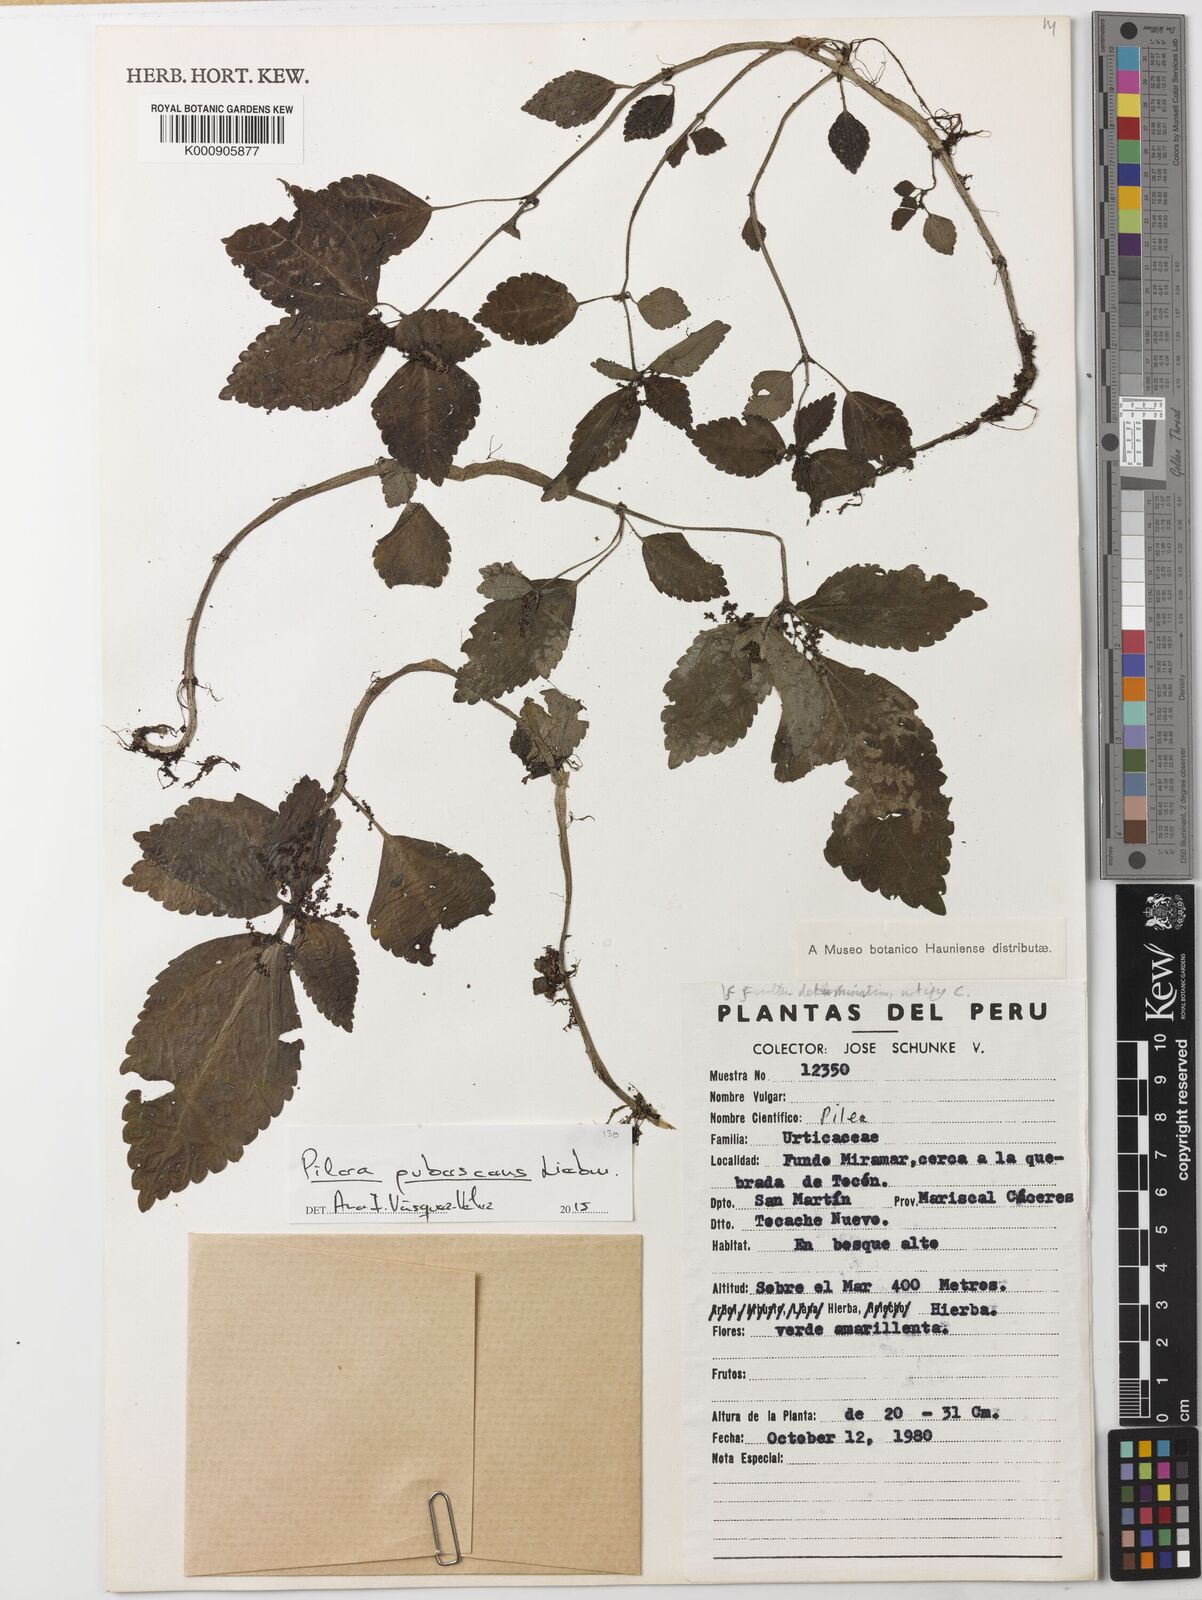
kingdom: Plantae
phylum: Tracheophyta
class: Magnoliopsida
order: Rosales
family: Urticaceae
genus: Pilea
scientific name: Pilea pubescens
